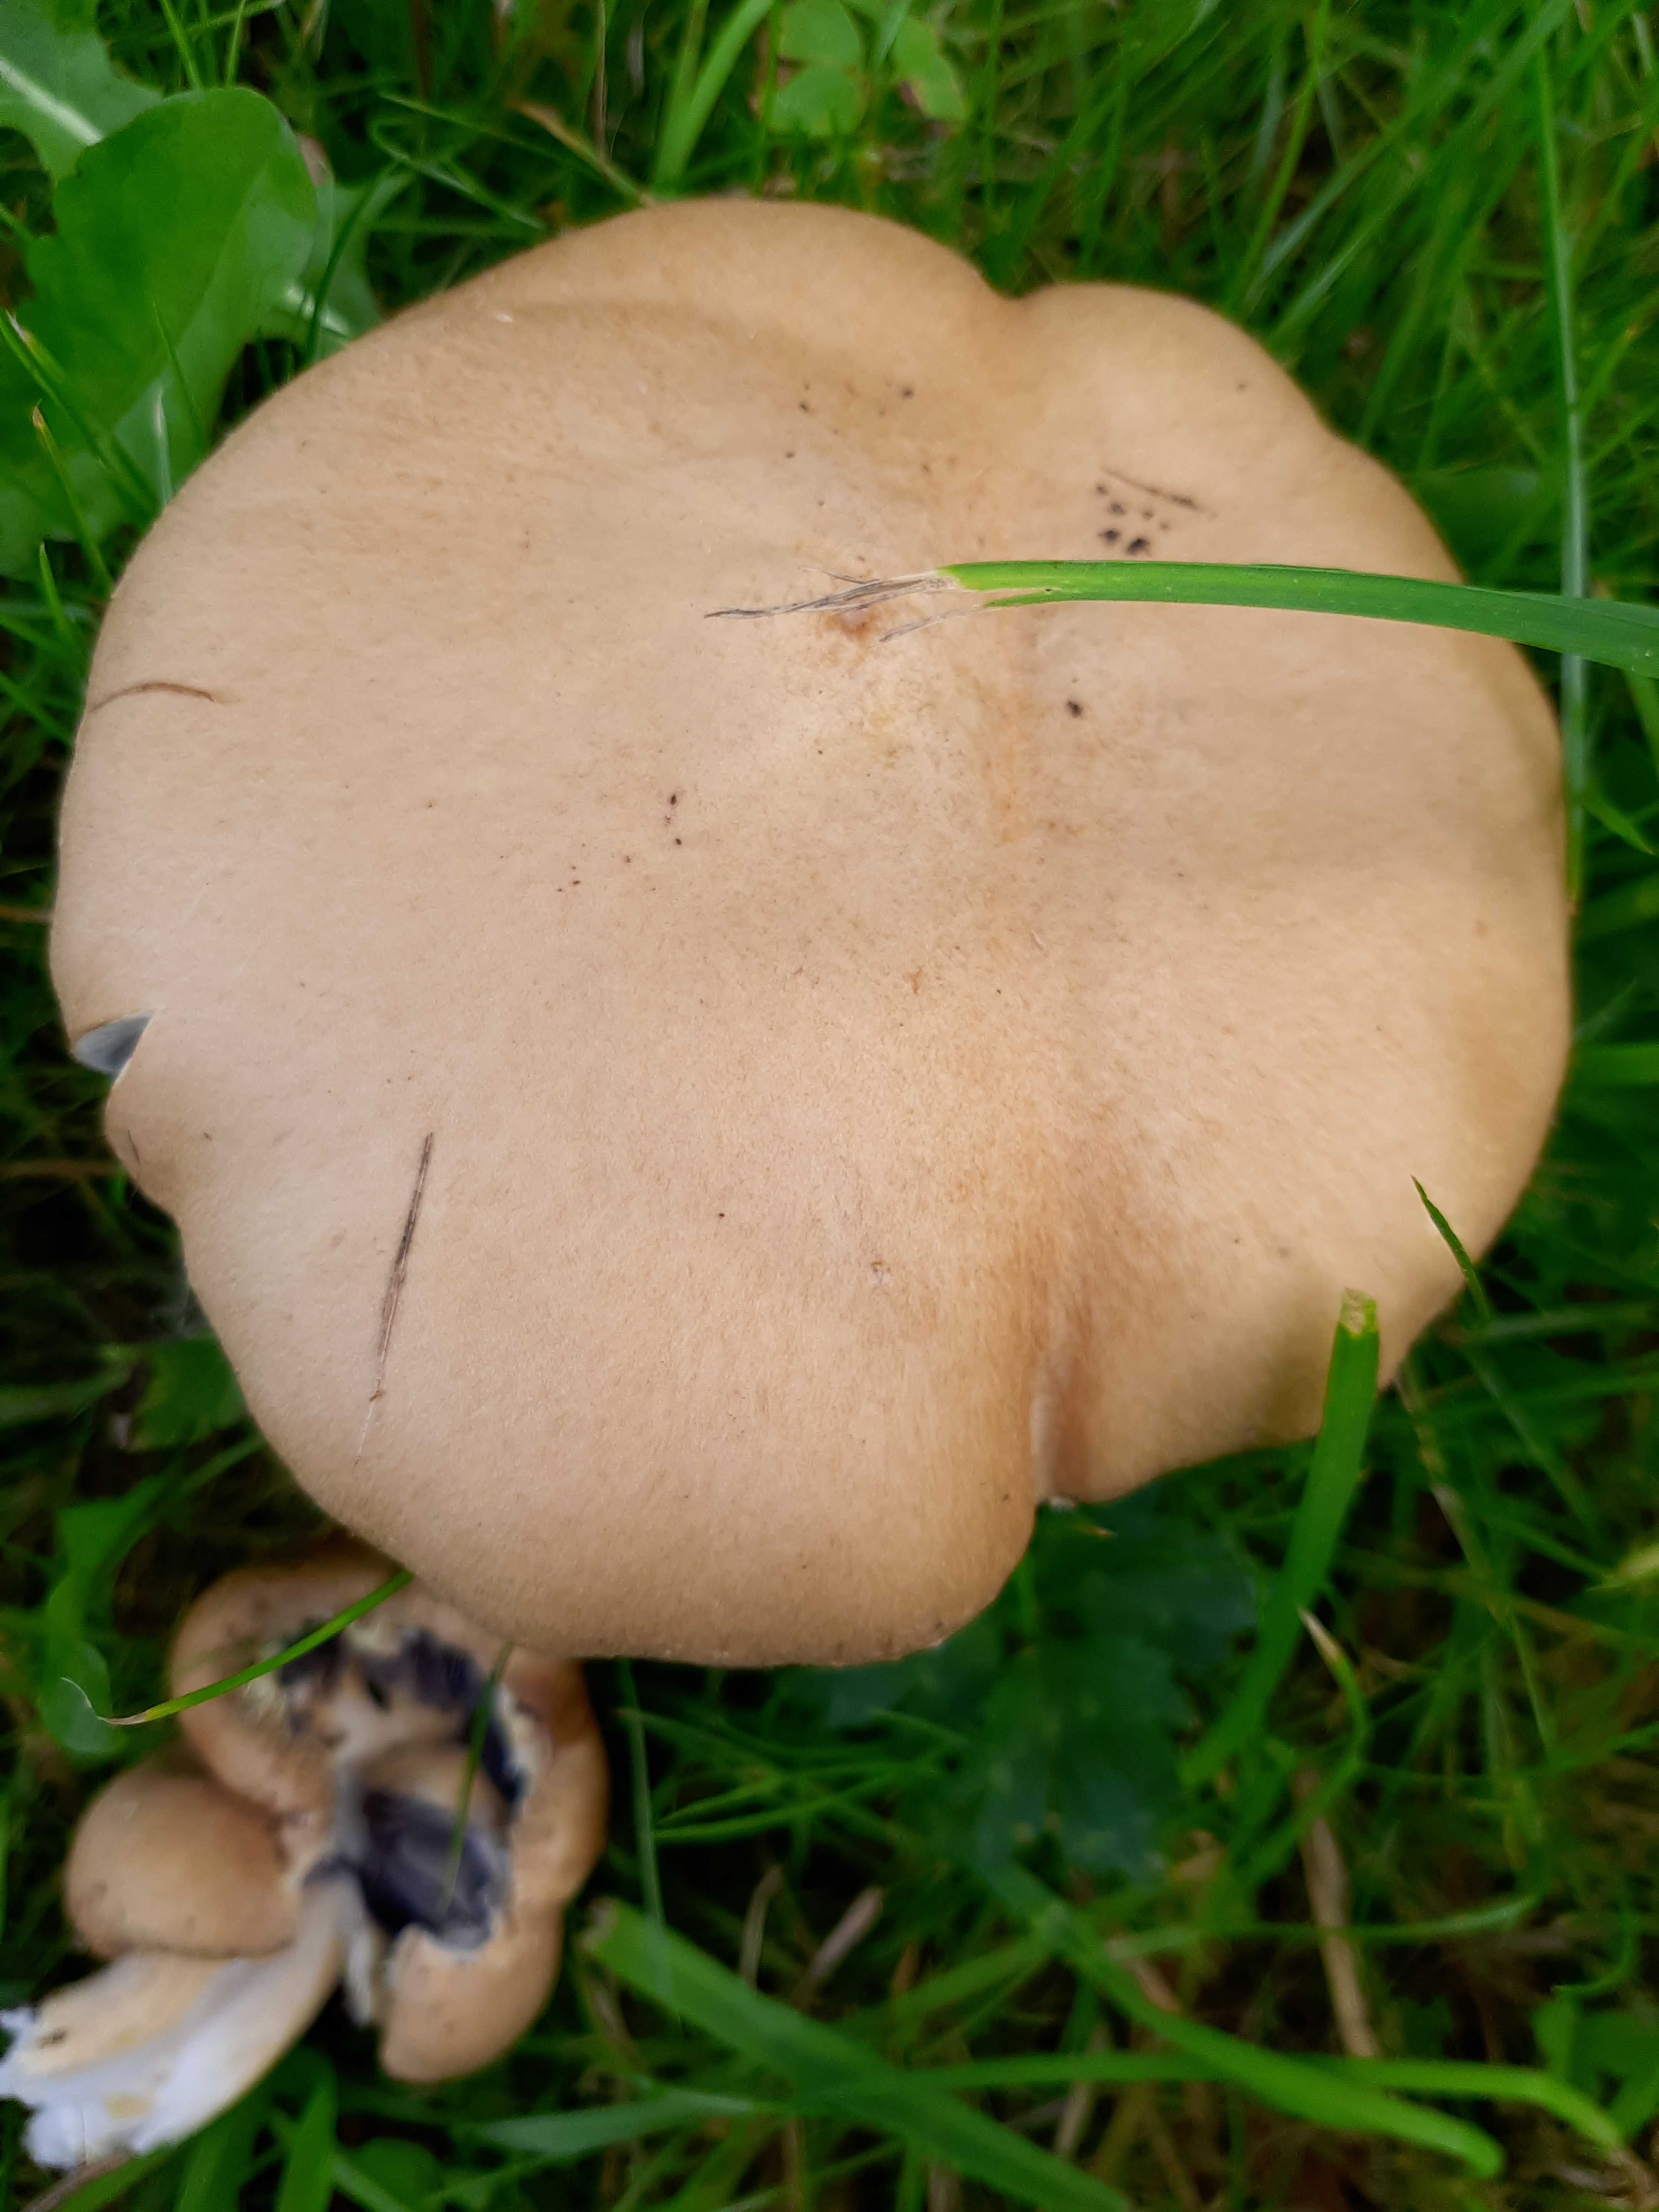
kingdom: Fungi
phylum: Basidiomycota
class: Agaricomycetes
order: Agaricales
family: Strophariaceae
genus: Stropharia
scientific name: Stropharia rugosoannulata
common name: rødbrun bredblad
